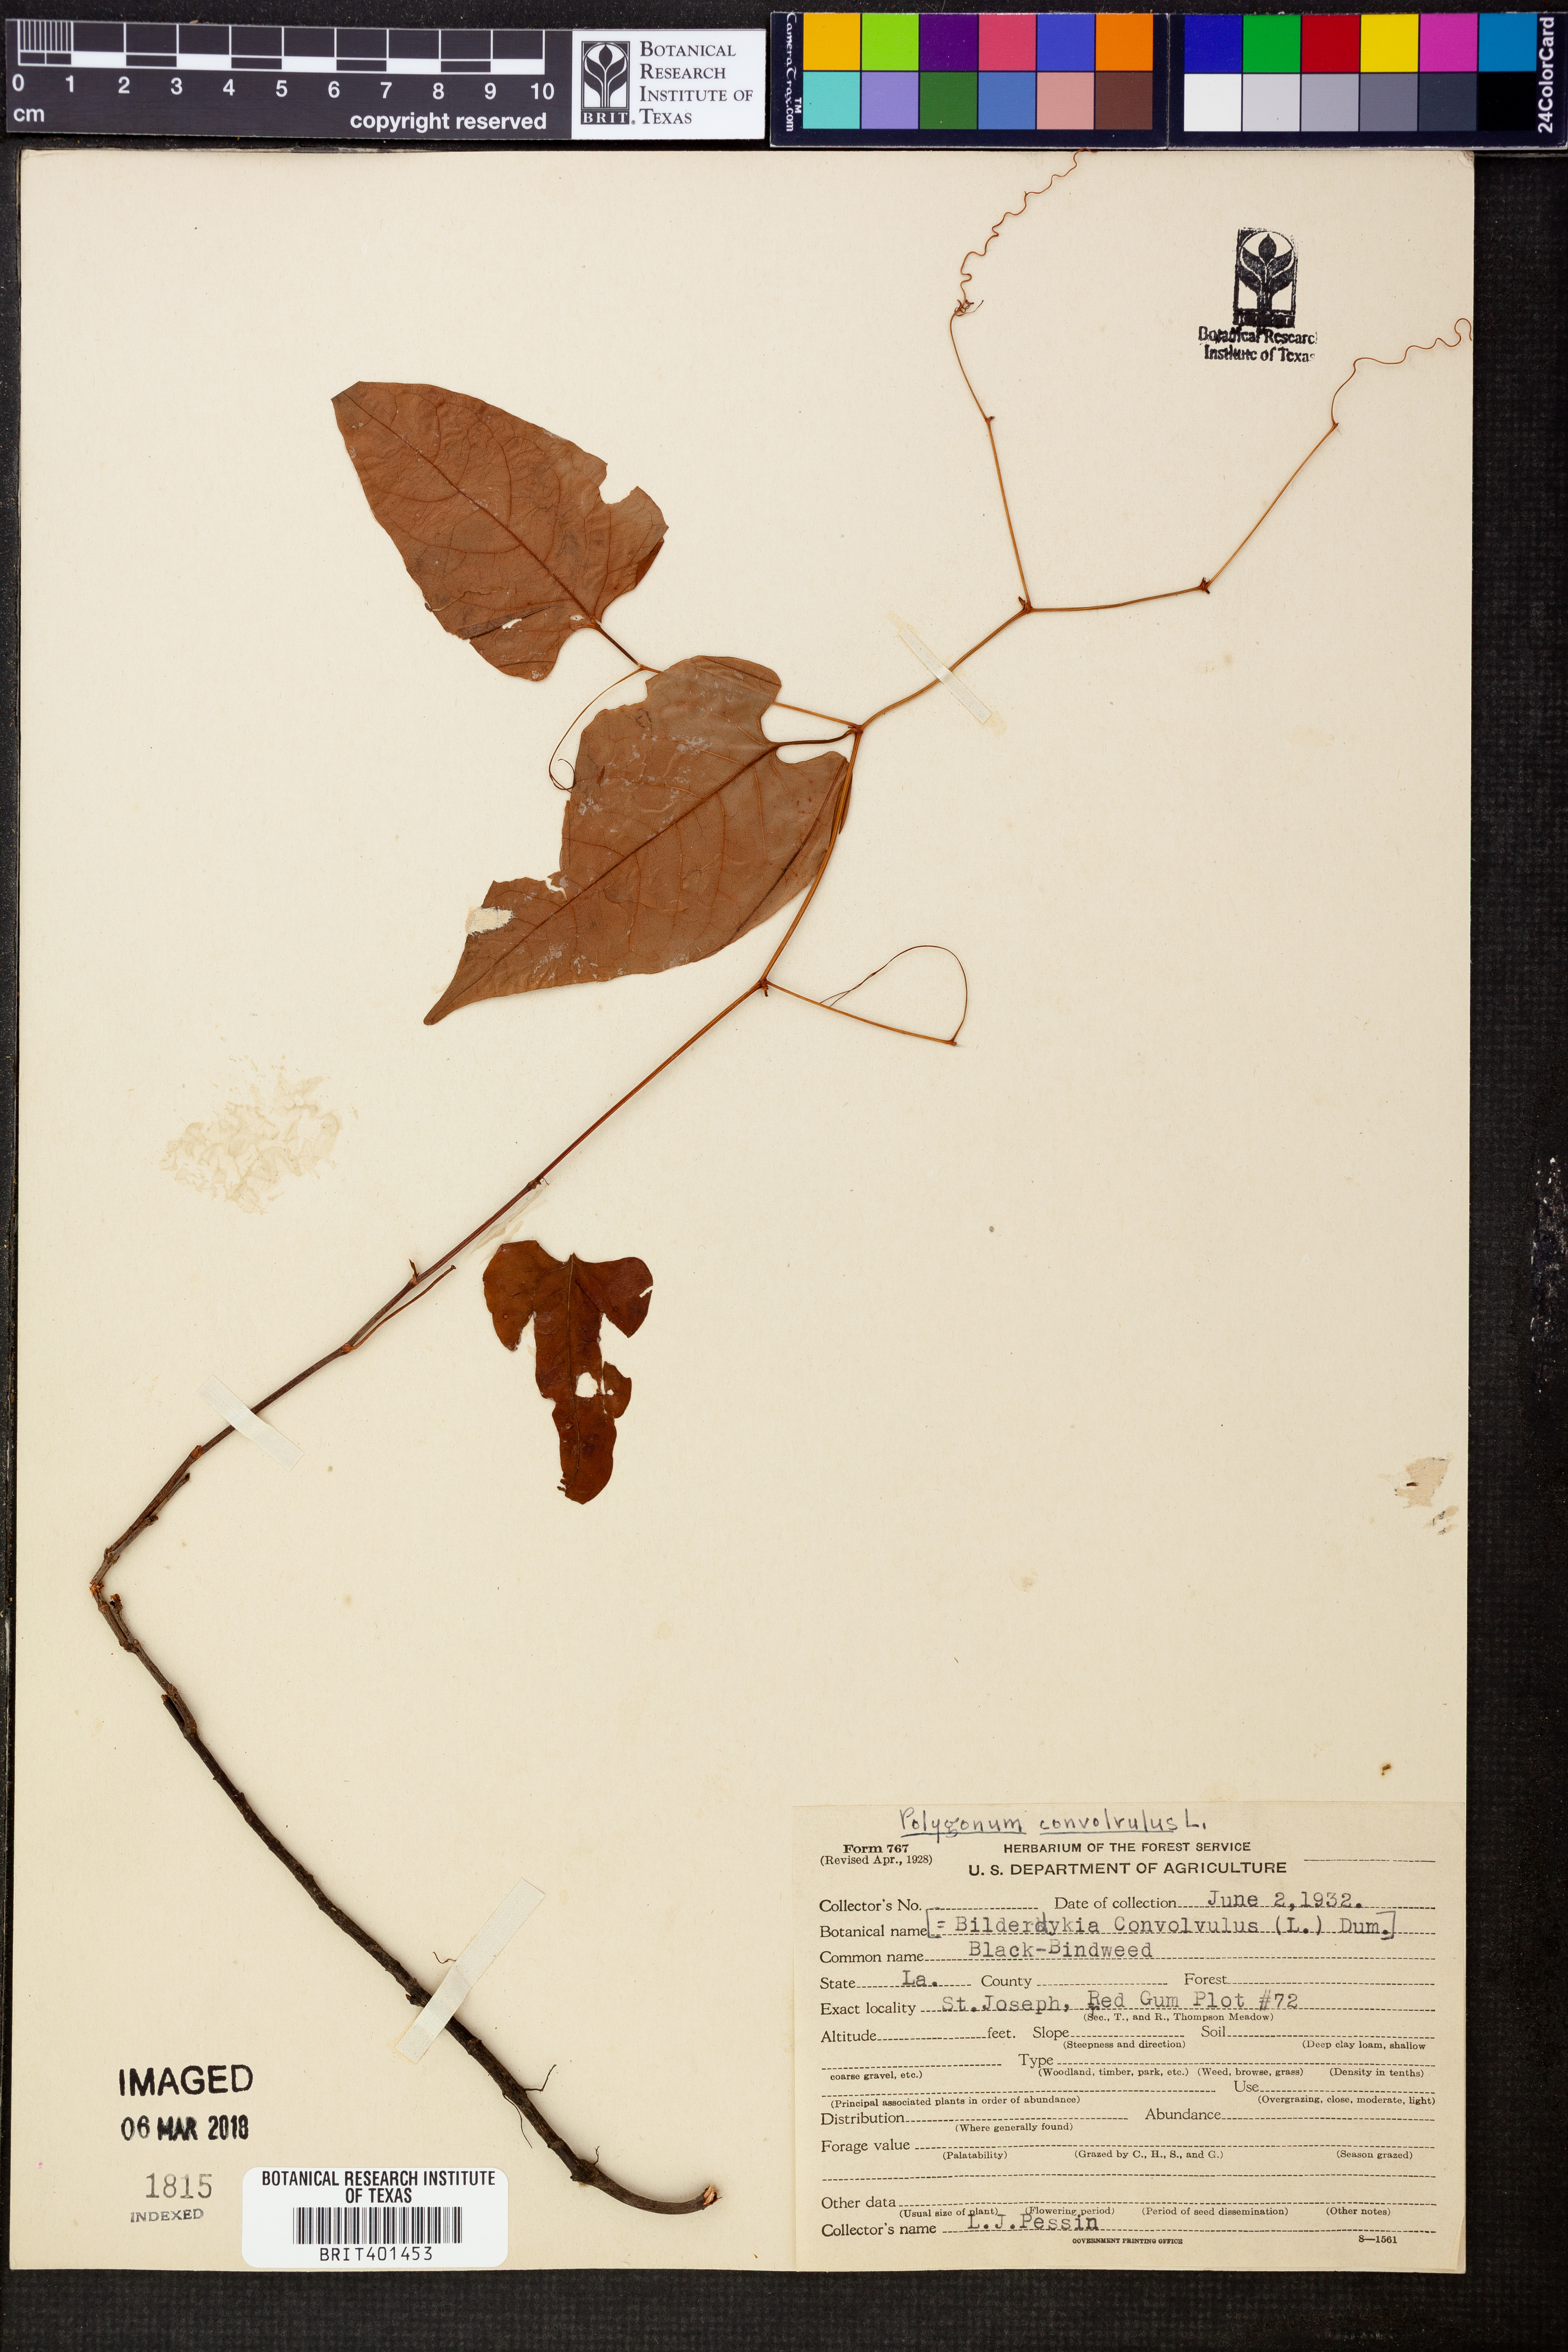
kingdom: Plantae
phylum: Tracheophyta
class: Magnoliopsida
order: Caryophyllales
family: Polygonaceae
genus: Fallopia
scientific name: Fallopia convolvulus
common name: Black bindweed
